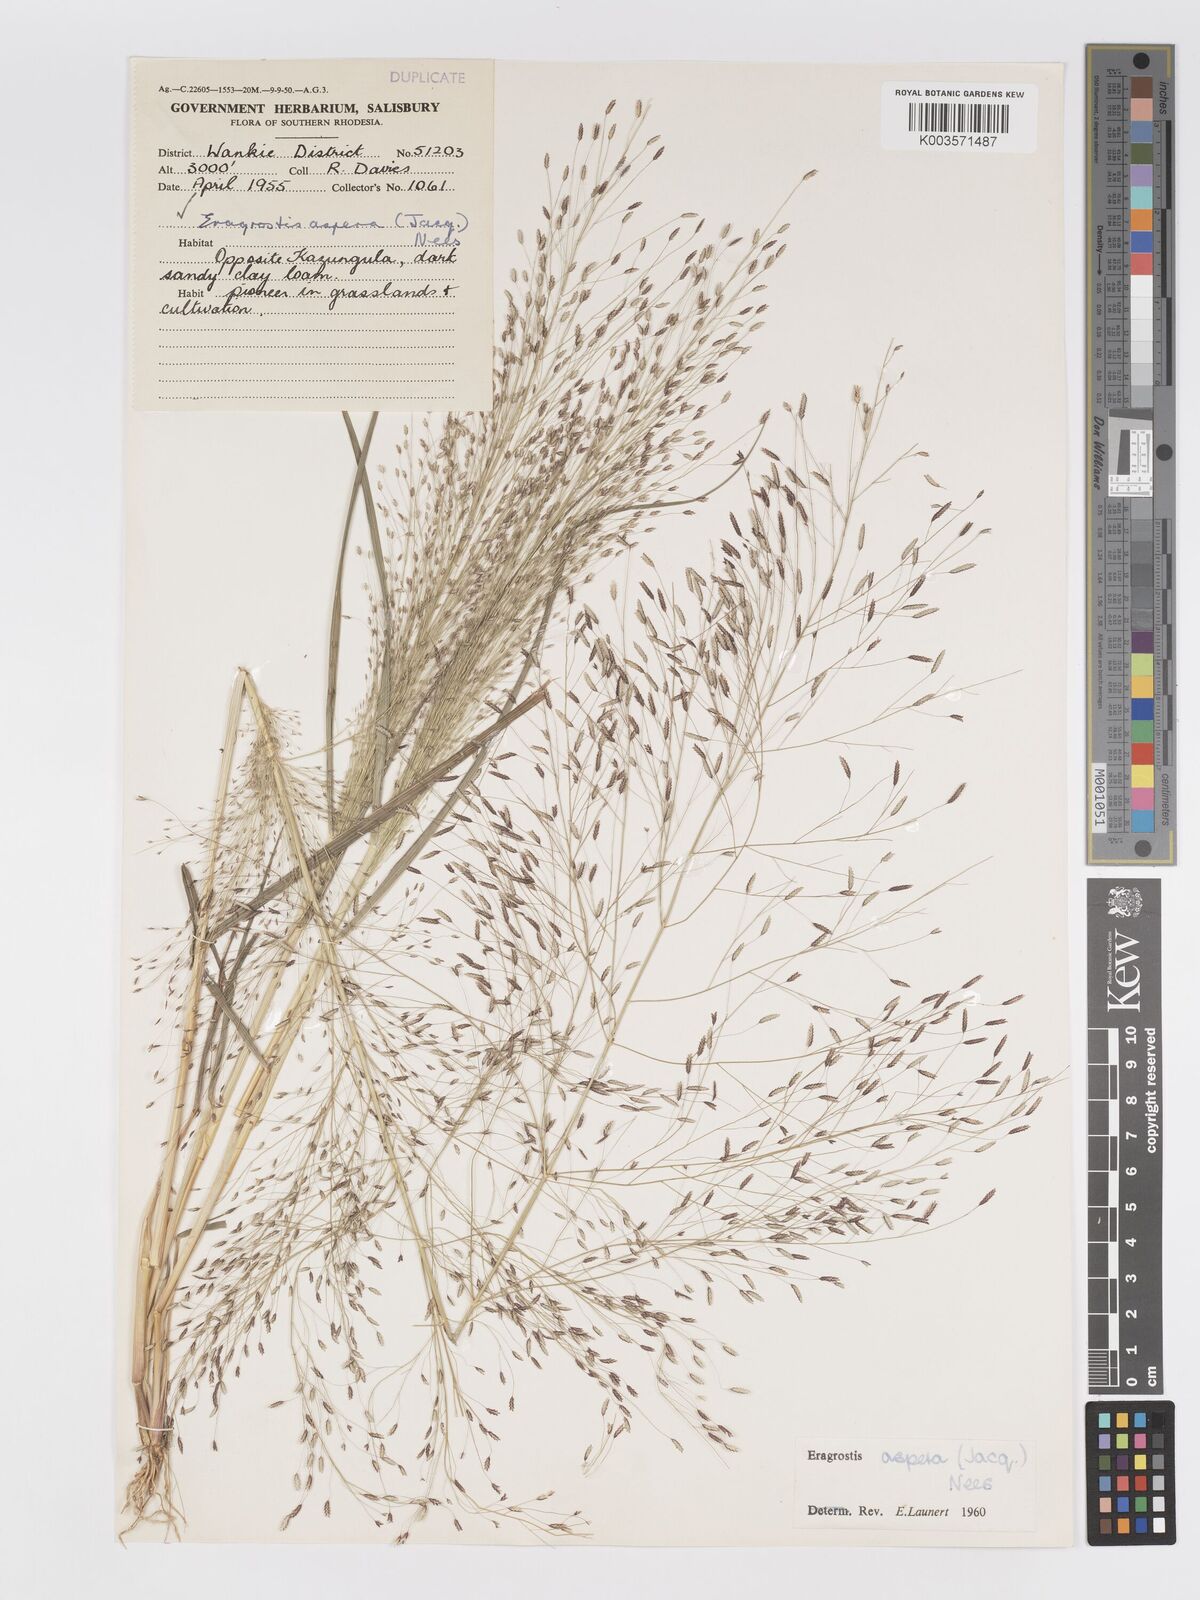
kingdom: Plantae
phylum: Tracheophyta
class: Liliopsida
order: Poales
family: Poaceae
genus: Eragrostis
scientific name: Eragrostis aspera
